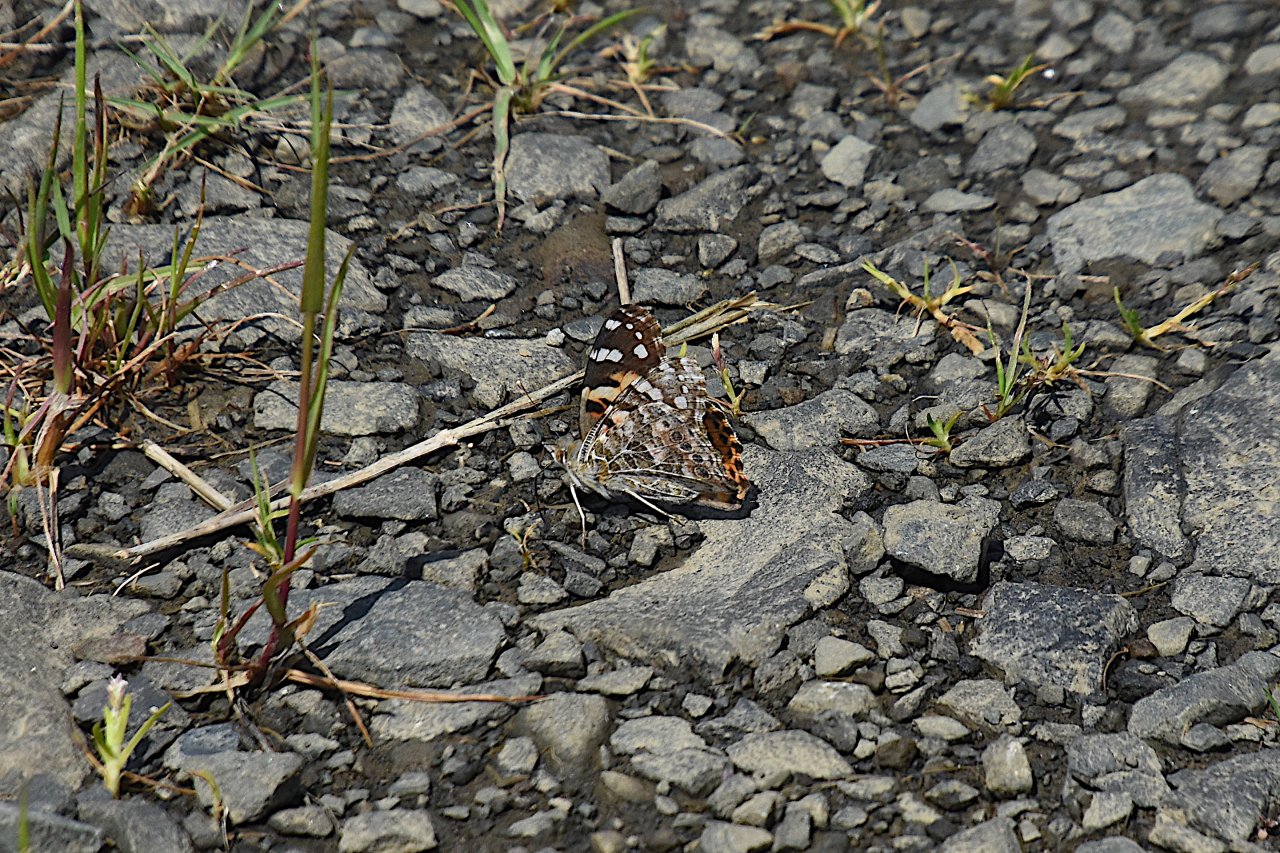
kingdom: Animalia
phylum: Arthropoda
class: Insecta
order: Lepidoptera
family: Nymphalidae
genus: Vanessa
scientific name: Vanessa cardui
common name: Painted Lady
